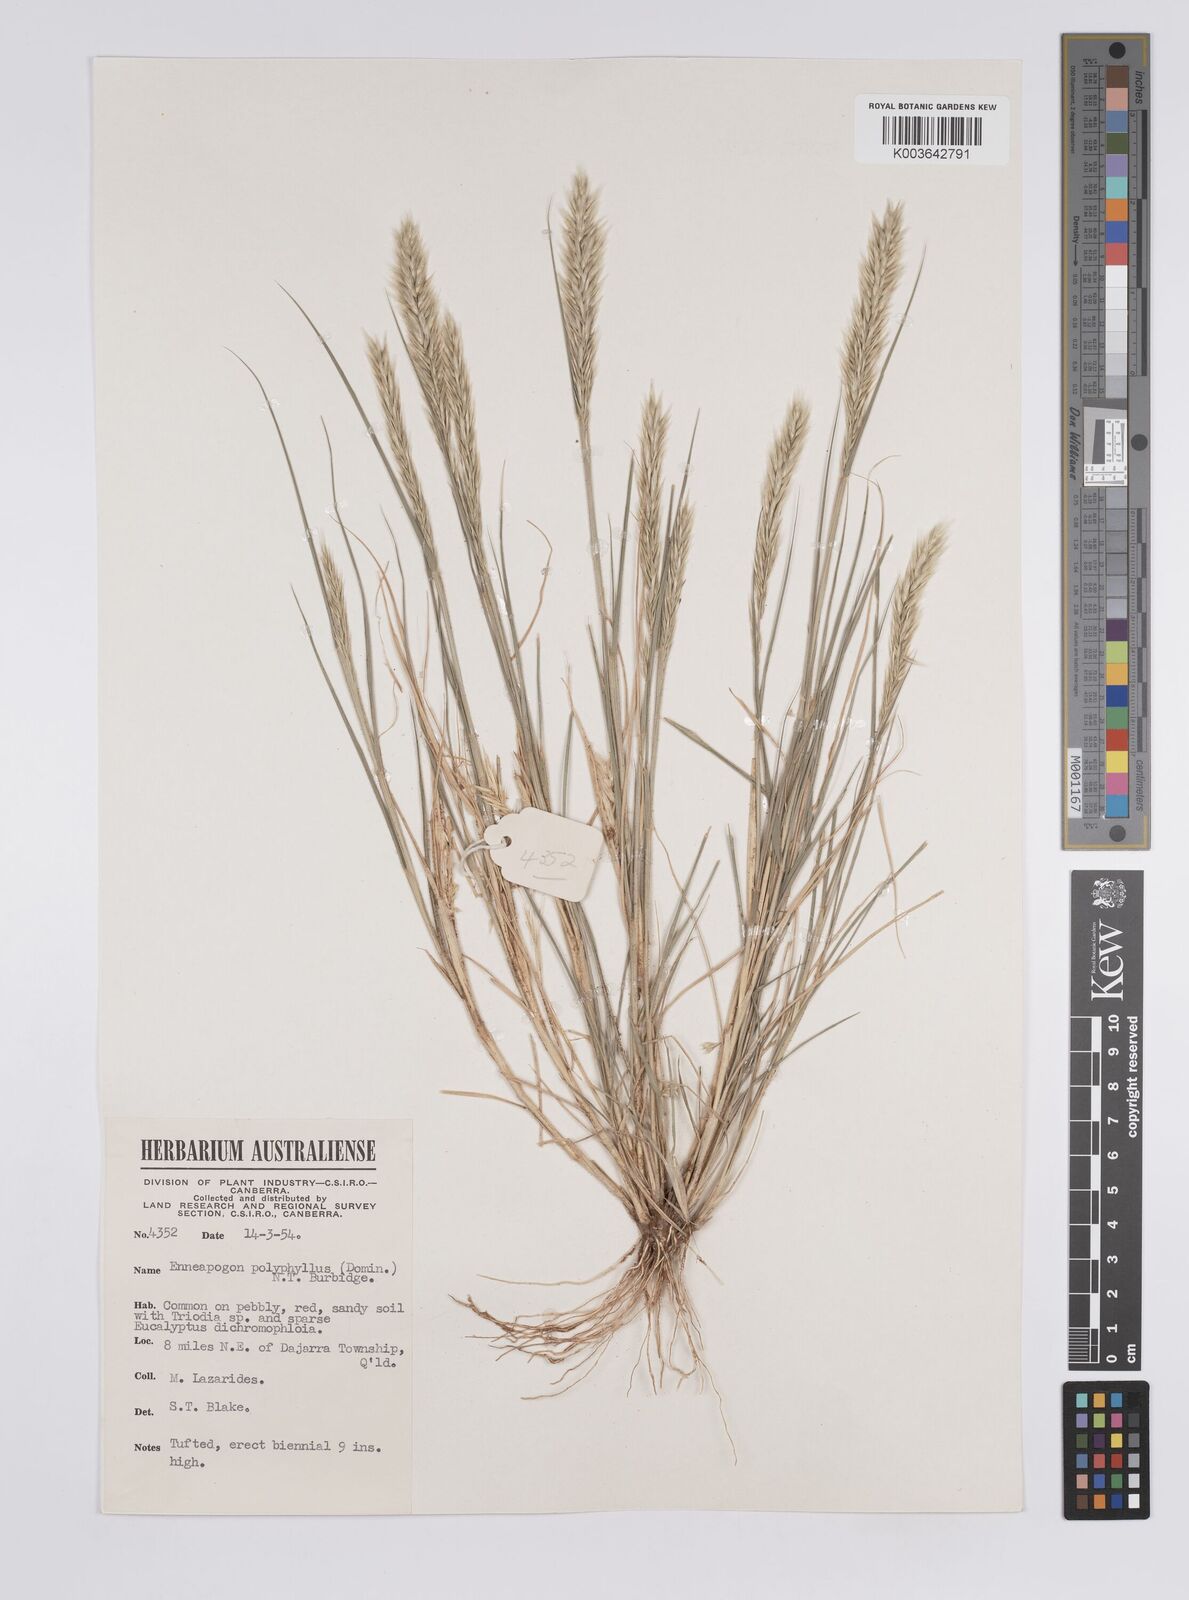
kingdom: Plantae
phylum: Tracheophyta
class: Liliopsida
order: Poales
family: Poaceae
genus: Enneapogon
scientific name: Enneapogon polyphyllus
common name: Leafy nineawn
